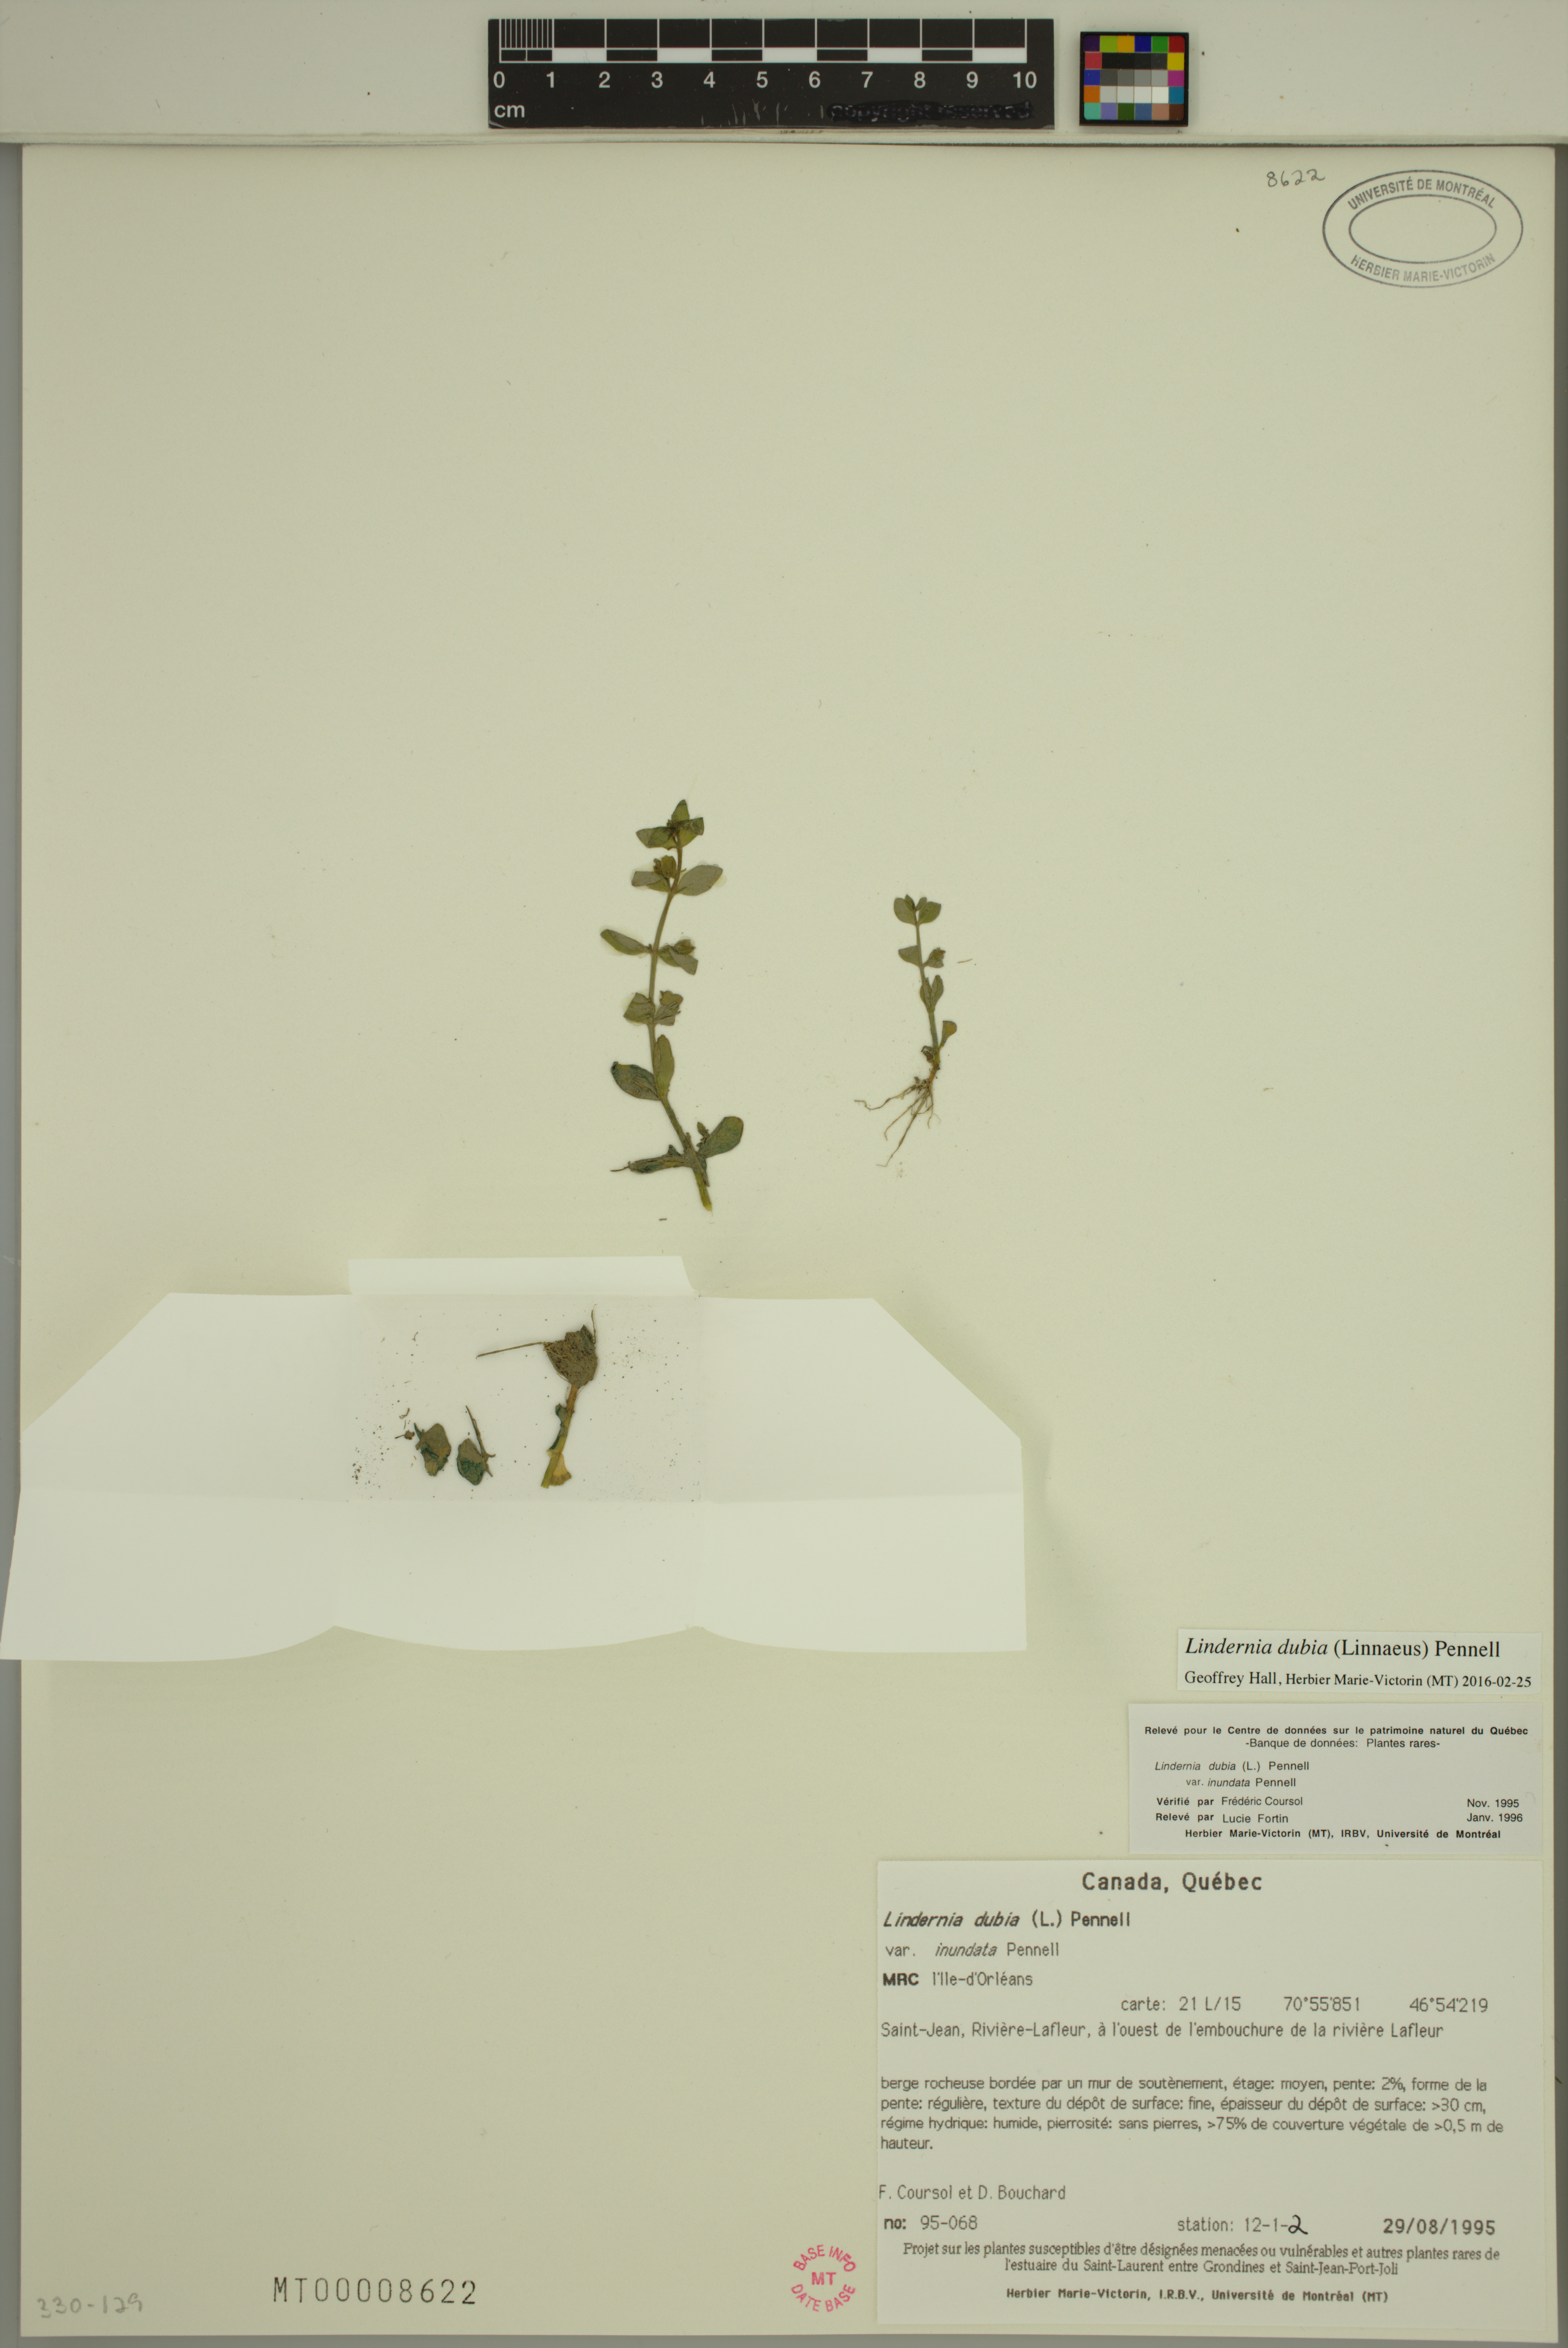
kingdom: Plantae
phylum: Tracheophyta
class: Magnoliopsida
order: Lamiales
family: Linderniaceae
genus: Lindernia
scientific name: Lindernia dubia
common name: Annual false pimpernel
